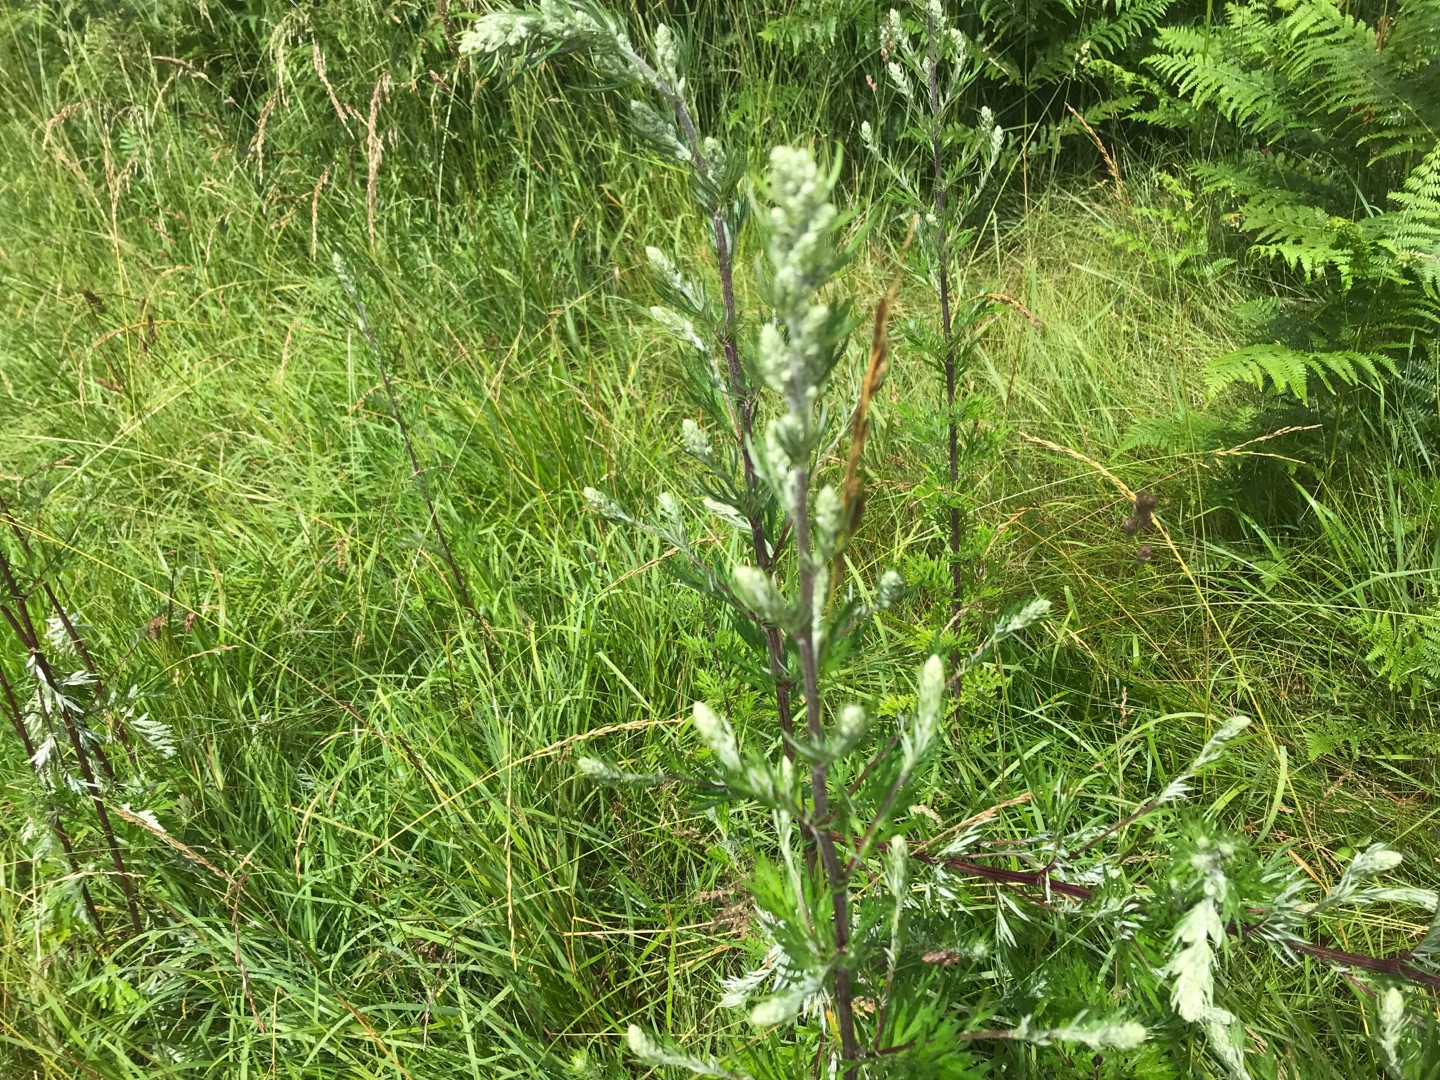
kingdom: Plantae
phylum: Tracheophyta
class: Magnoliopsida
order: Asterales
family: Asteraceae
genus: Artemisia
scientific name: Artemisia vulgaris
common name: Grå-bynke
